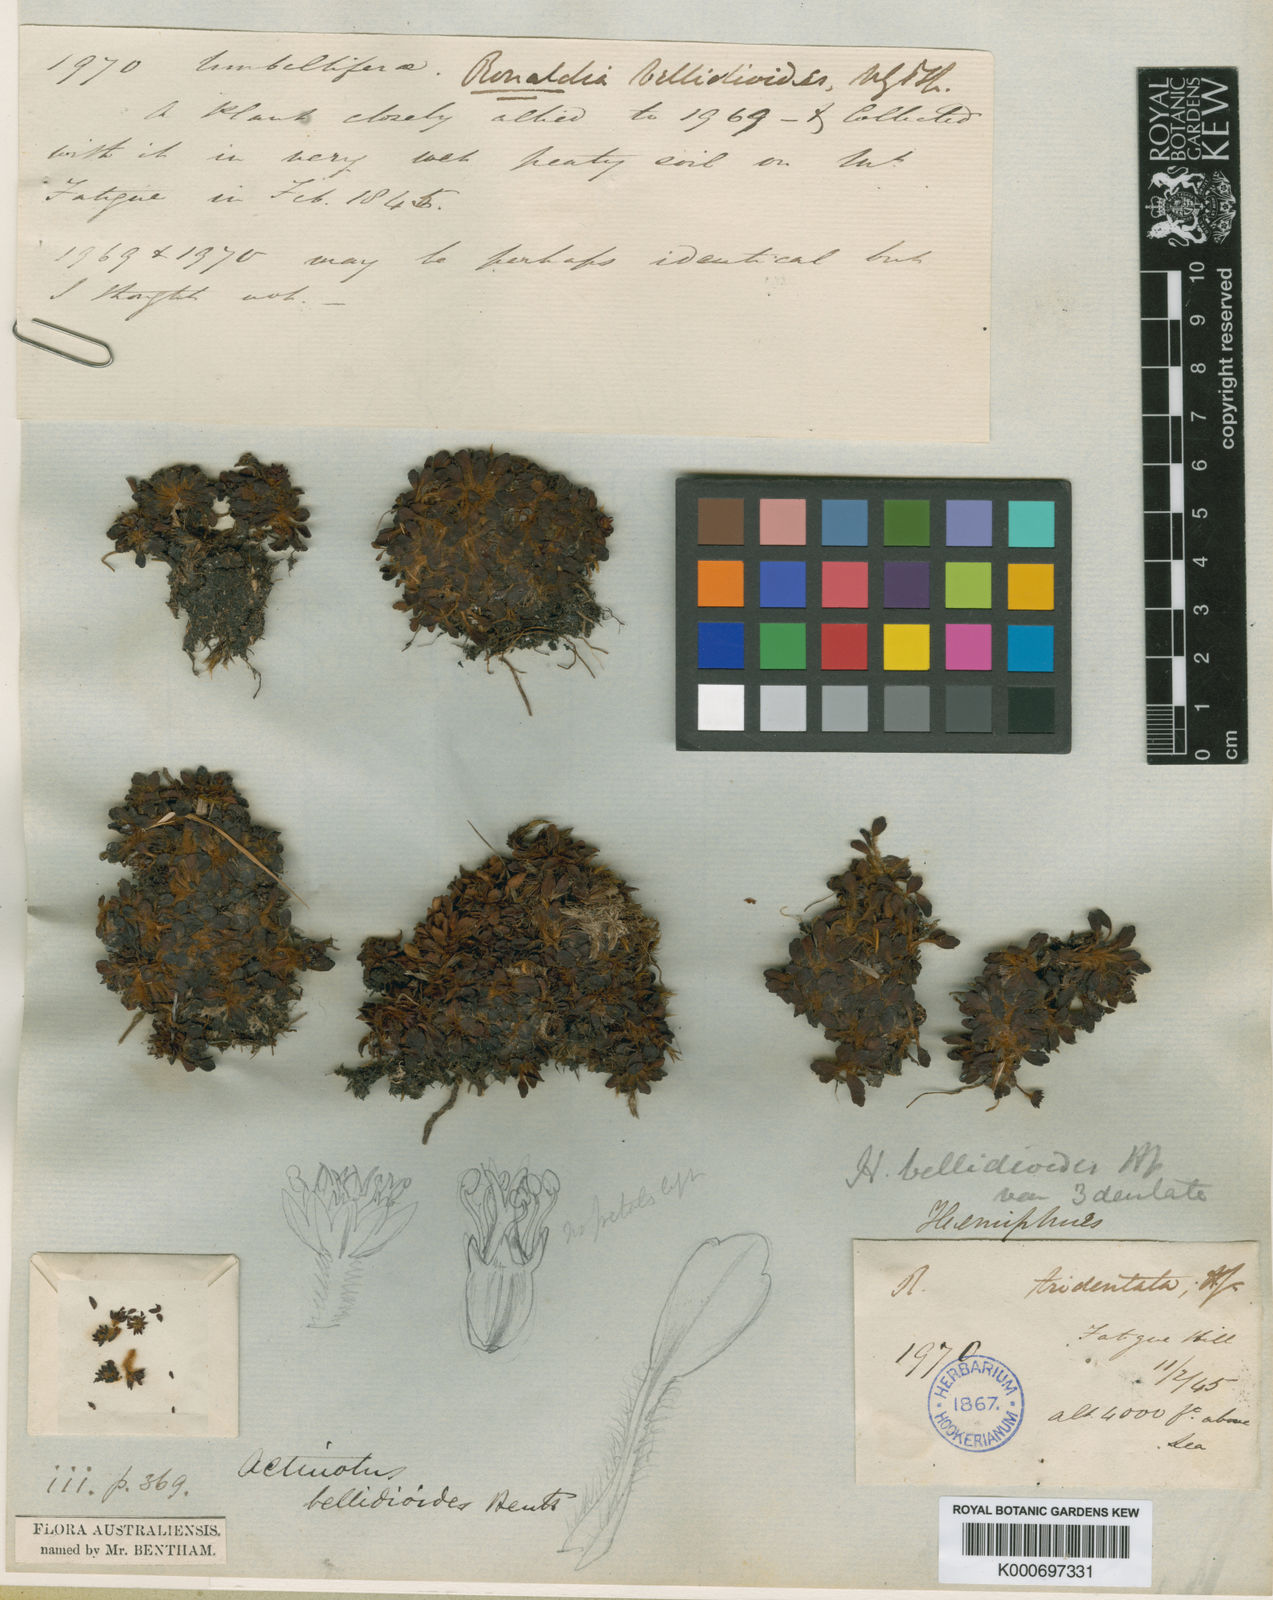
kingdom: Plantae
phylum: Tracheophyta
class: Magnoliopsida
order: Apiales
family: Apiaceae
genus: Actinotus
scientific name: Actinotus bellidioides
